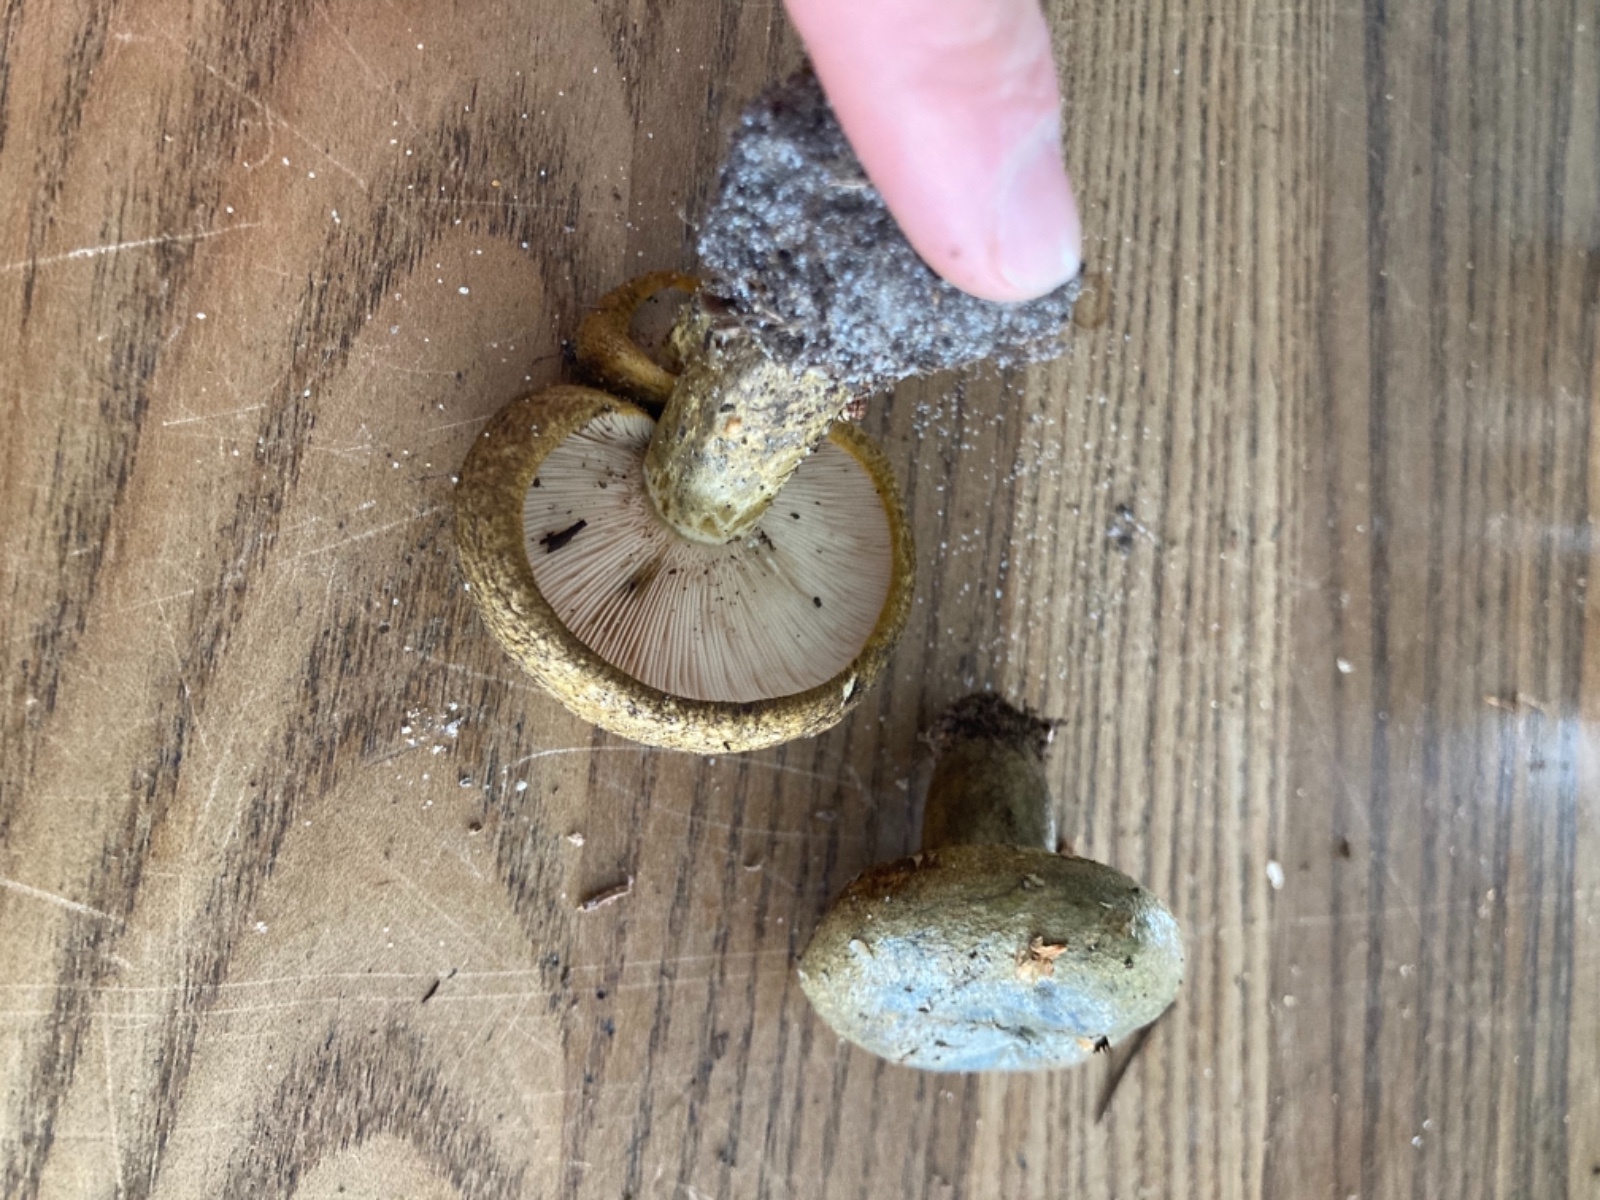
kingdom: Fungi
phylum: Basidiomycota
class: Agaricomycetes
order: Russulales
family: Russulaceae
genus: Lactarius
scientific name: Lactarius necator
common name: manddraber-mælkehat
